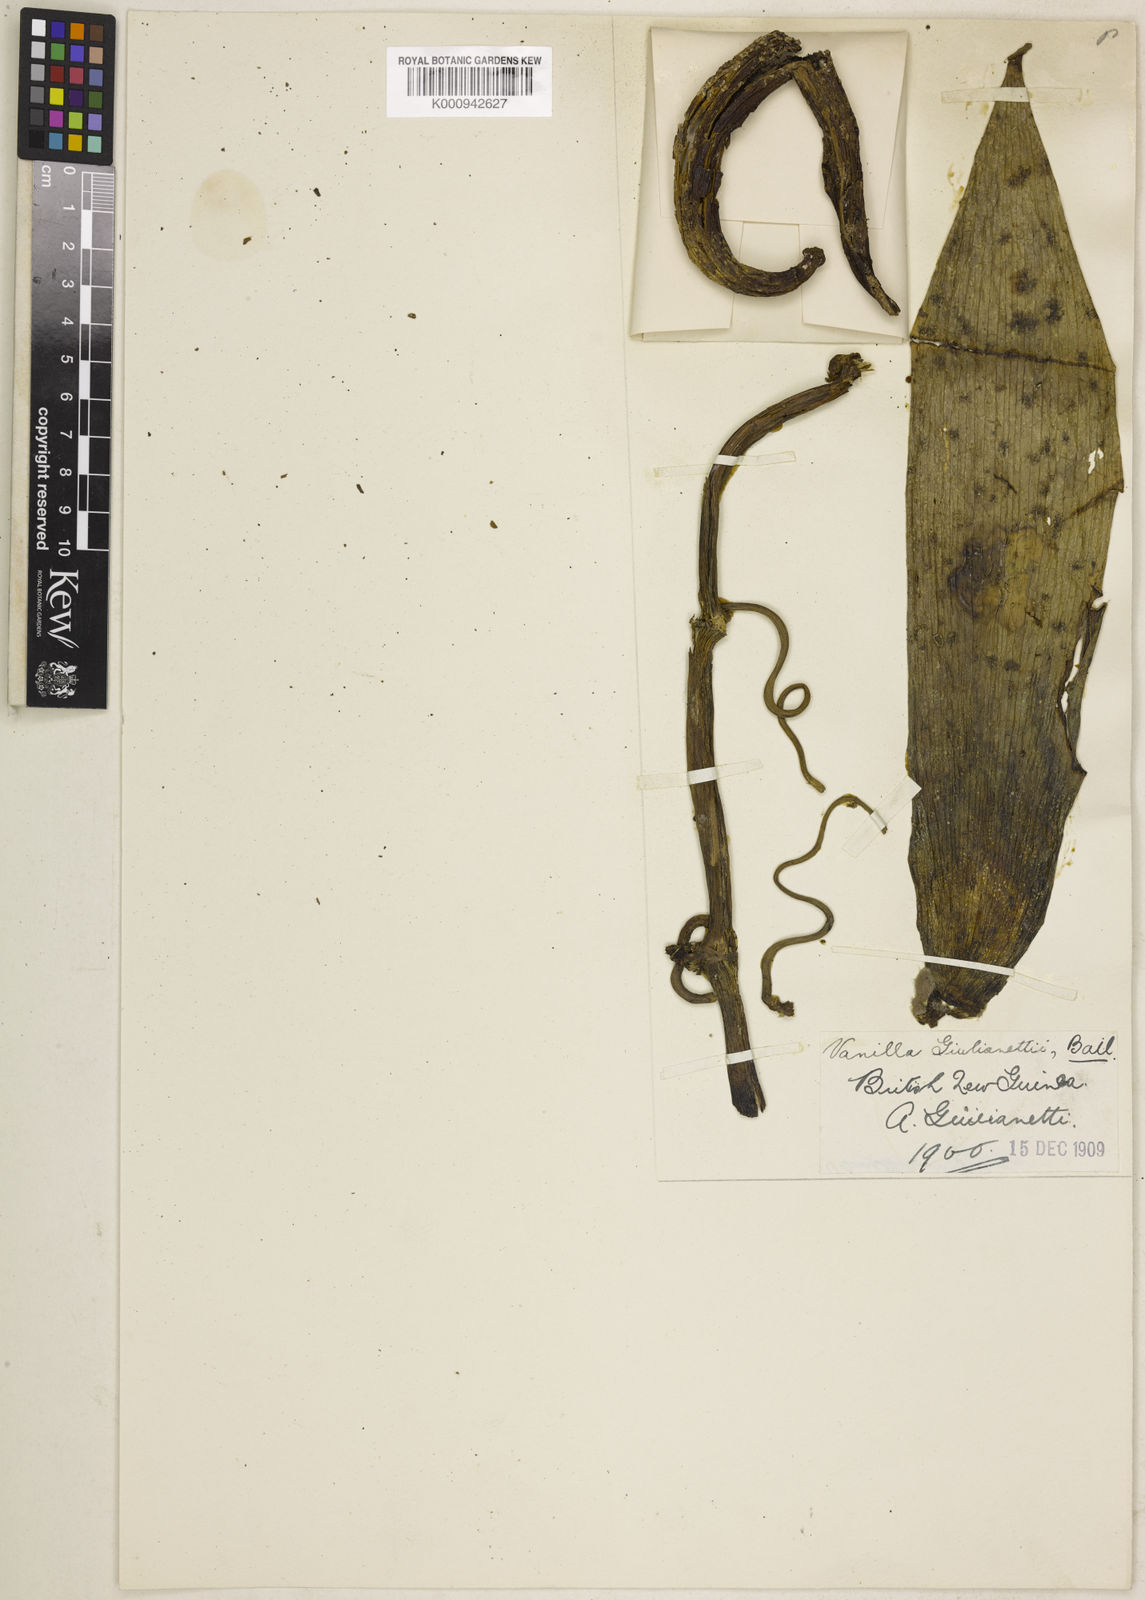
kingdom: Plantae
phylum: Tracheophyta
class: Liliopsida
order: Asparagales
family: Orchidaceae
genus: Vanilla
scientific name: Vanilla giulianettii
